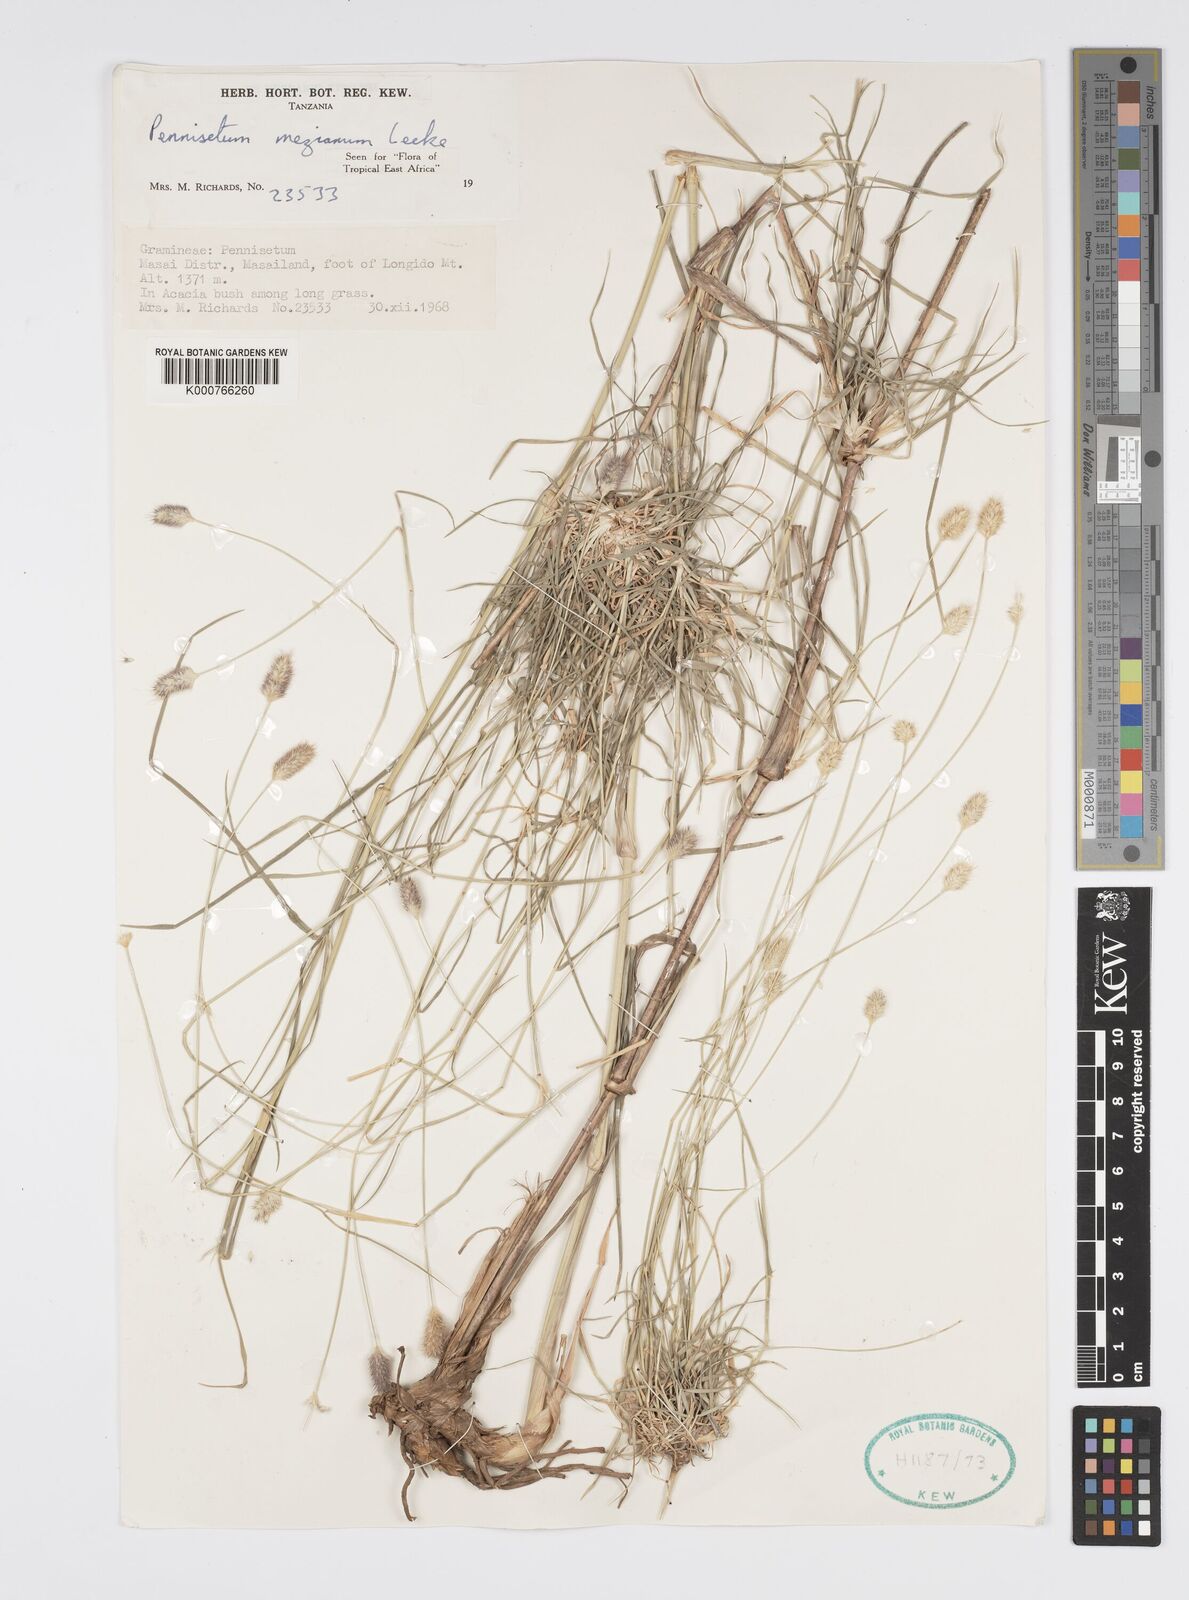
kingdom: Plantae
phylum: Tracheophyta
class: Liliopsida
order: Poales
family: Poaceae
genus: Cenchrus
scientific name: Cenchrus mezianus
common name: Bamboo grass
